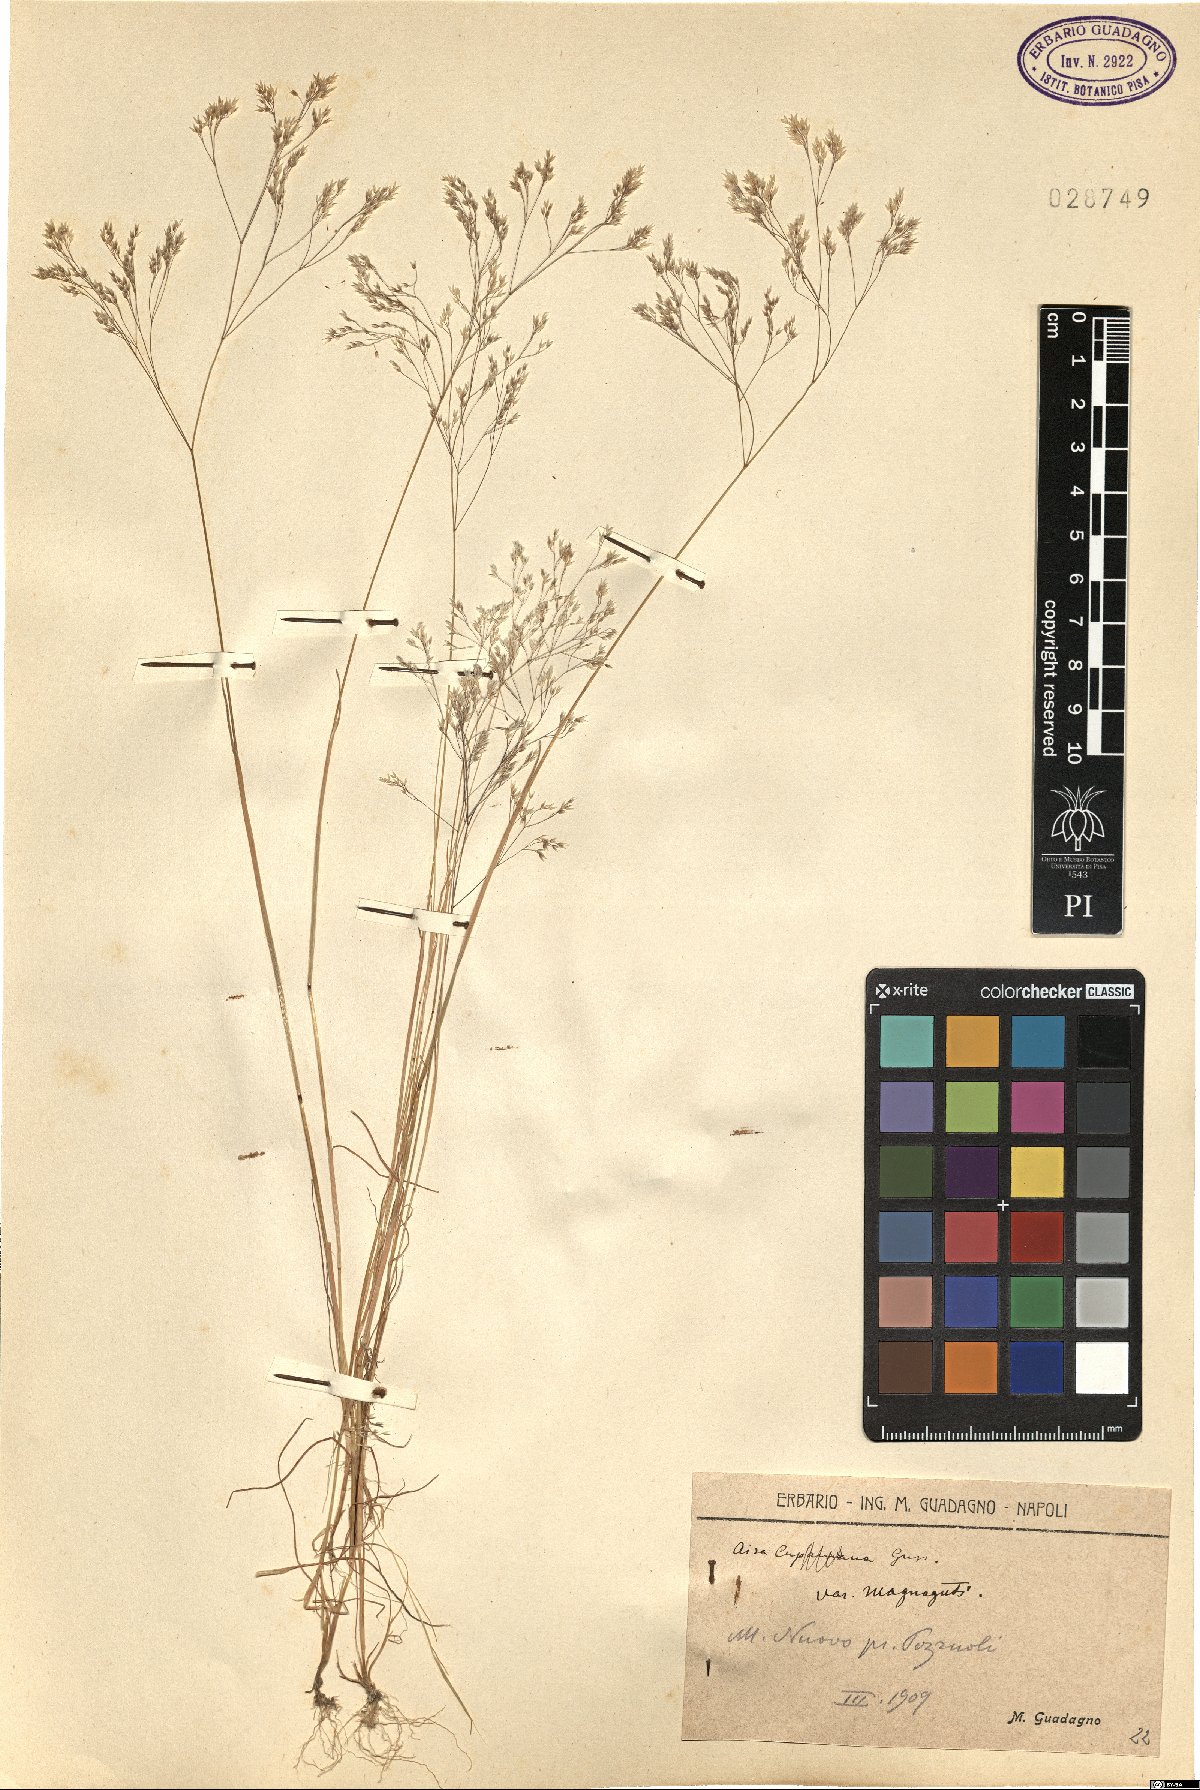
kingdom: Plantae
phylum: Tracheophyta
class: Liliopsida
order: Poales
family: Poaceae
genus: Aira
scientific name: Aira cupaniana
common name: Silver hairgrass
